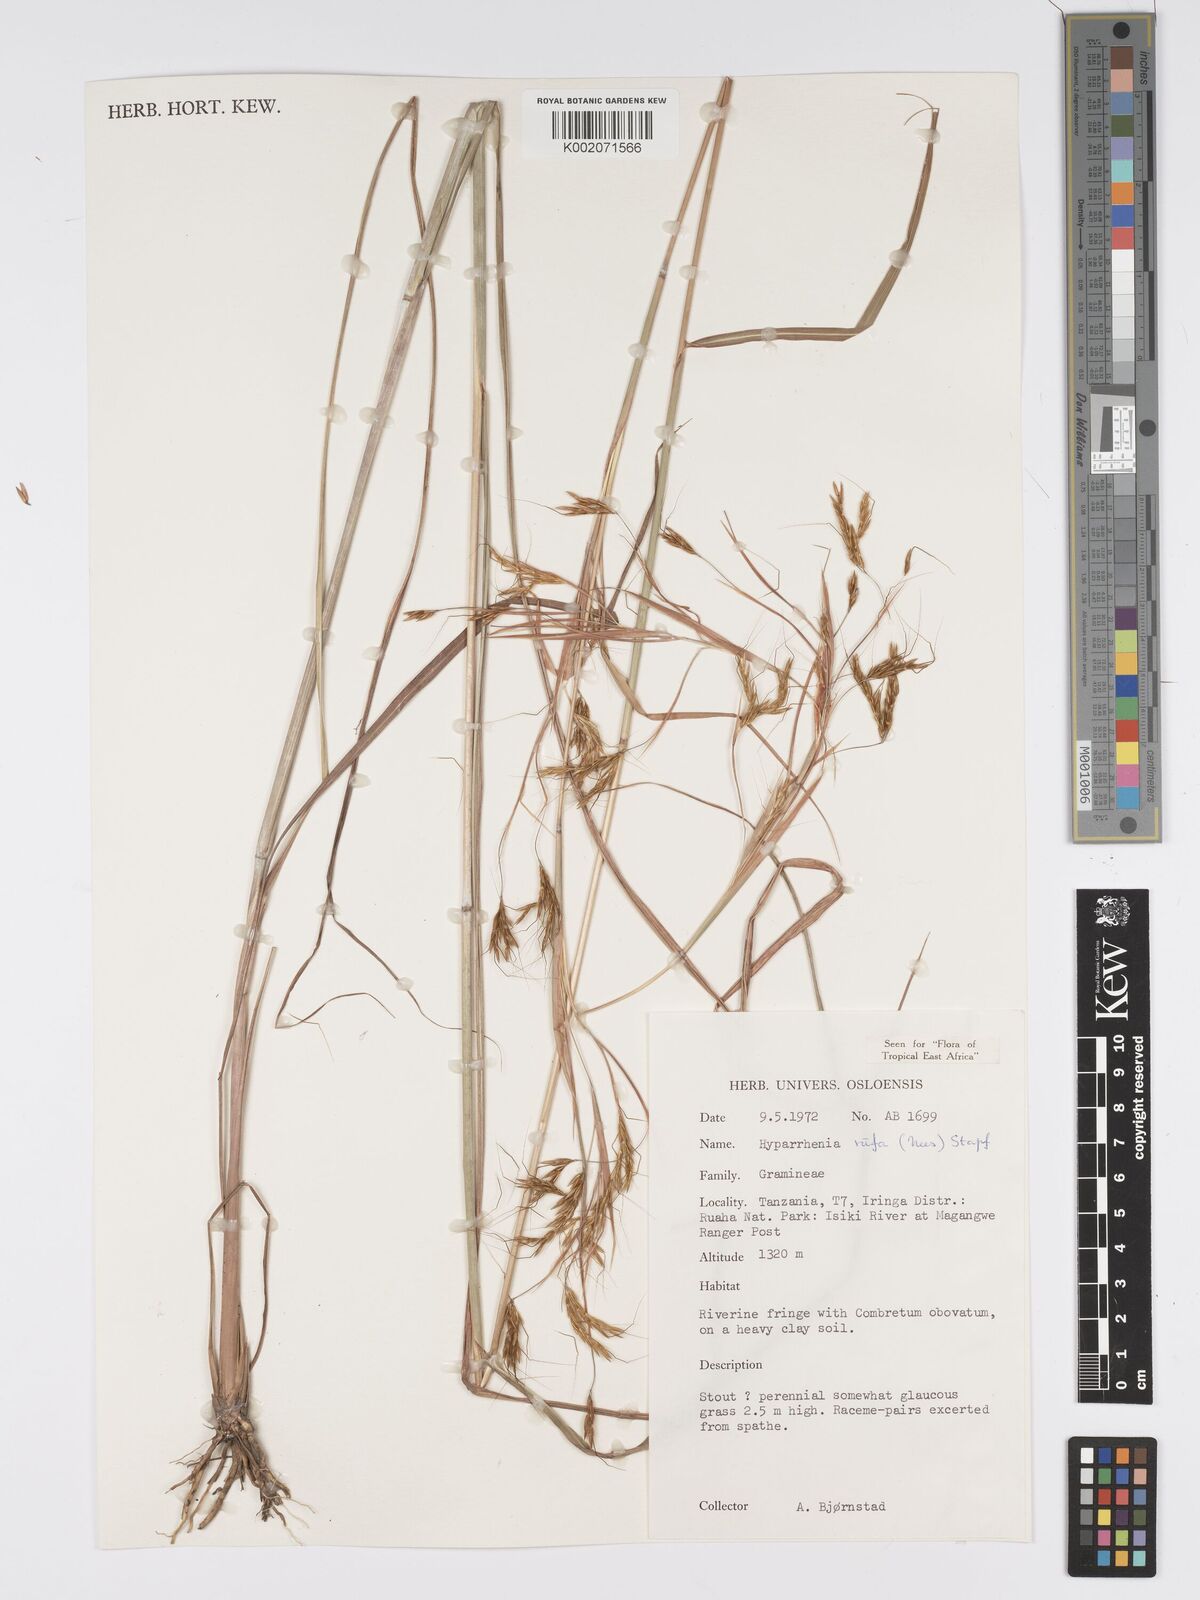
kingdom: Plantae
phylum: Tracheophyta
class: Liliopsida
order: Poales
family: Poaceae
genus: Hyparrhenia
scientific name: Hyparrhenia rufa
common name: Jaraguagrass
